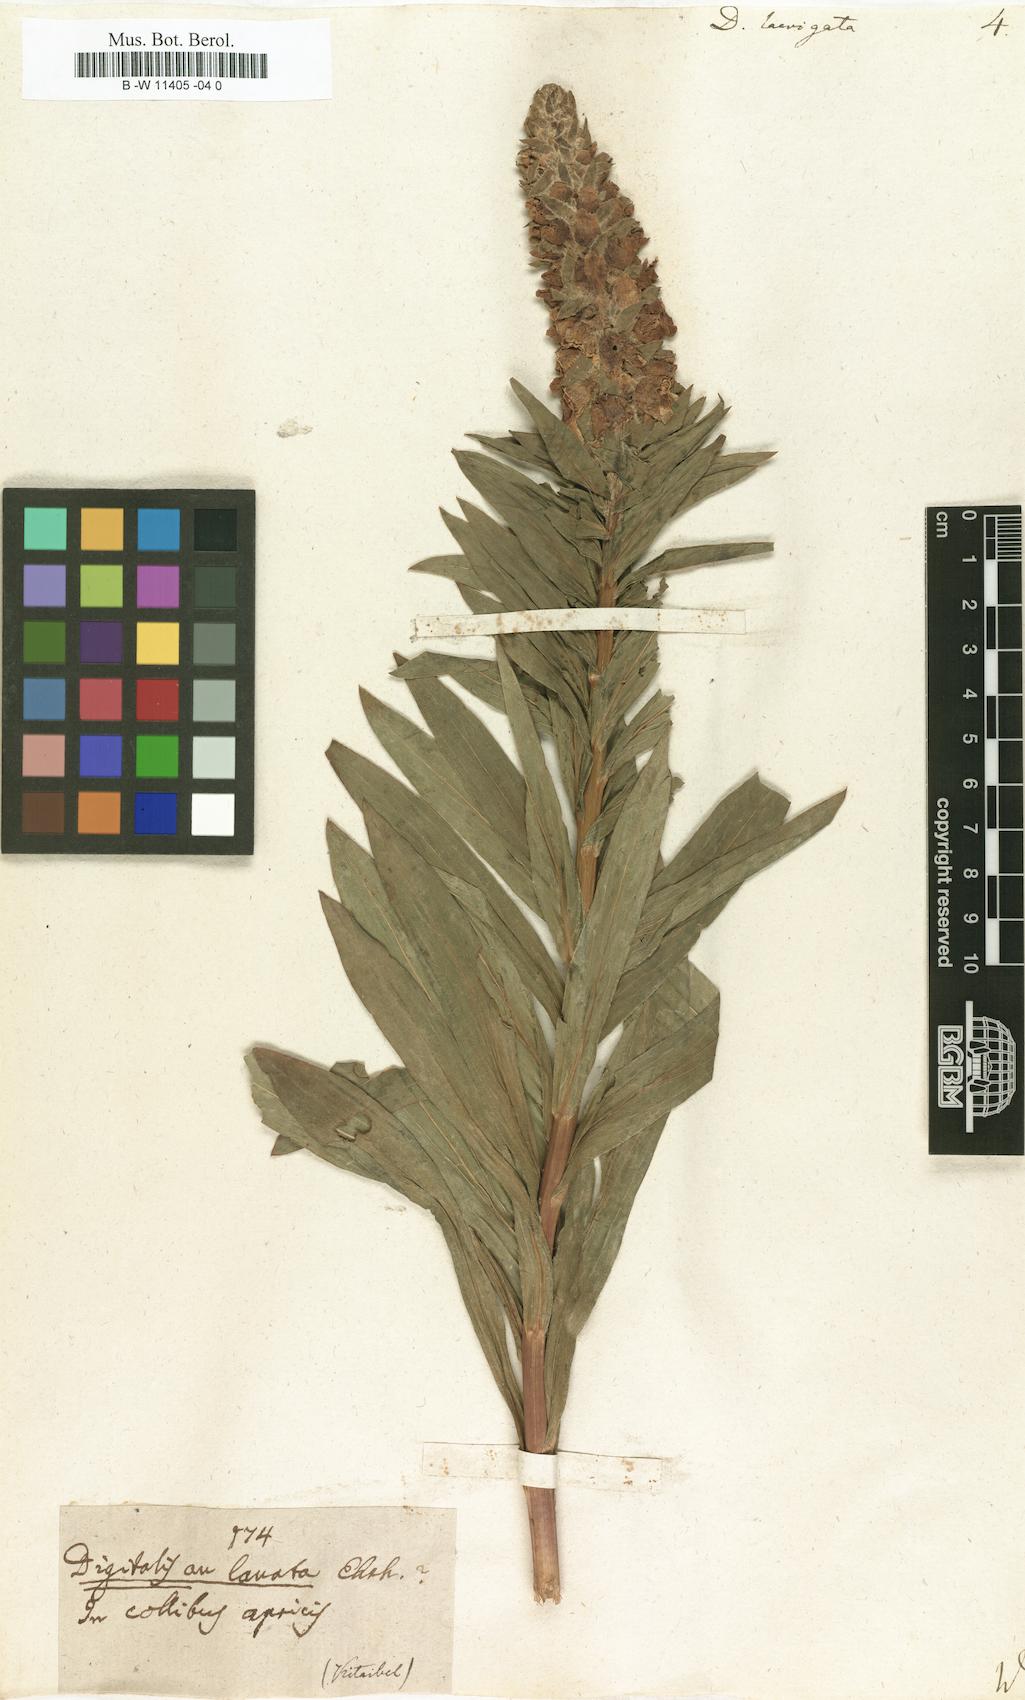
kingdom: Plantae
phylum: Tracheophyta
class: Magnoliopsida
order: Lamiales
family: Plantaginaceae
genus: Digitalis
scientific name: Digitalis laevigata
